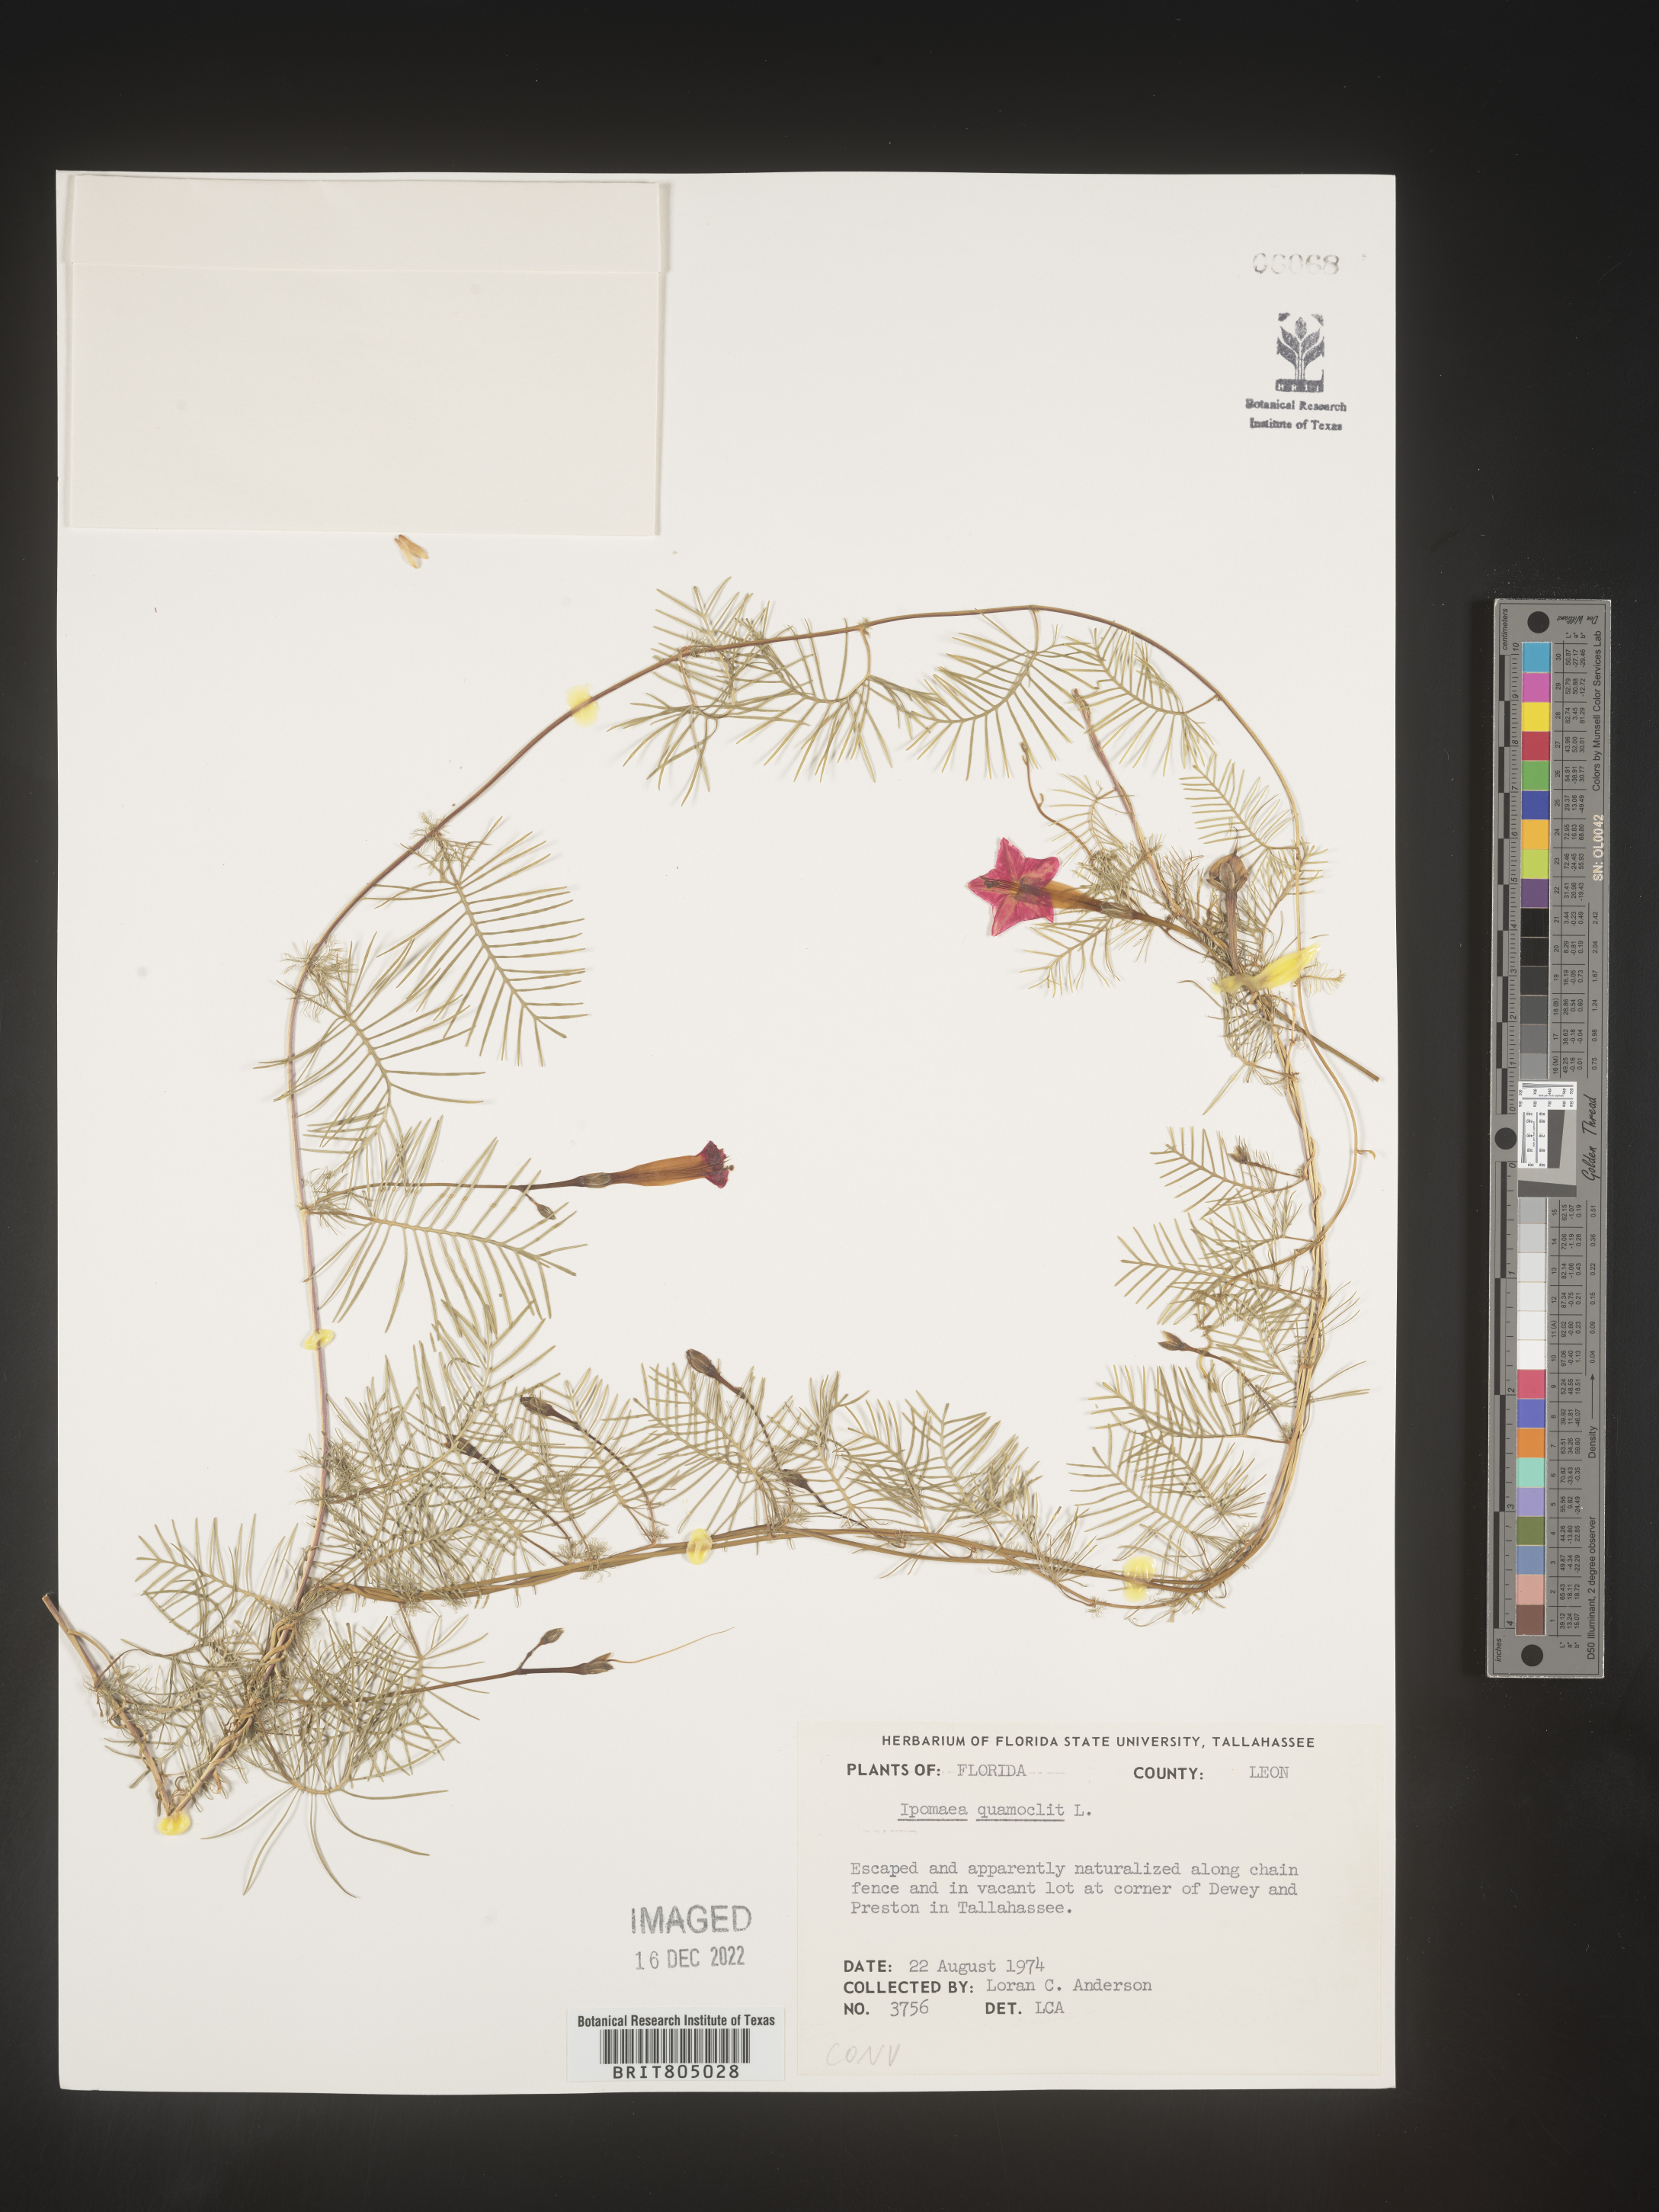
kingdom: Plantae
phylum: Tracheophyta
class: Magnoliopsida
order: Solanales
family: Convolvulaceae
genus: Ipomoea
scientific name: Ipomoea quamoclit
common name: Cypress vine
